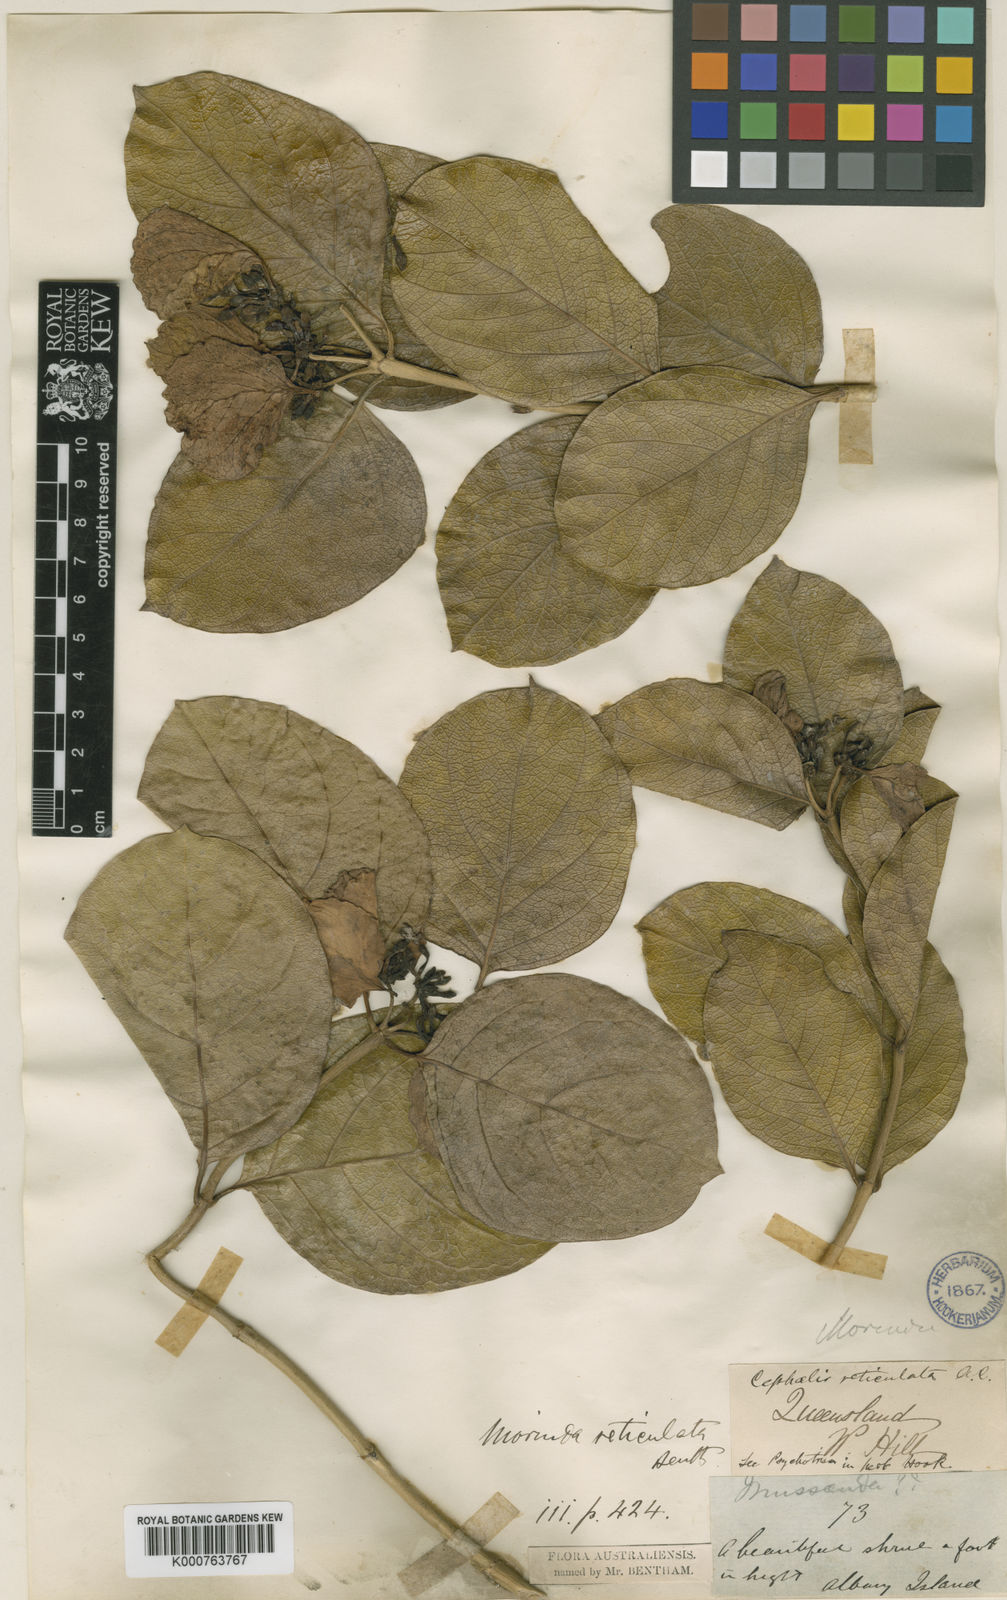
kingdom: Plantae
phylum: Tracheophyta
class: Magnoliopsida
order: Gentianales
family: Rubiaceae
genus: Gynochthodes
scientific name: Gynochthodes subcaudata
